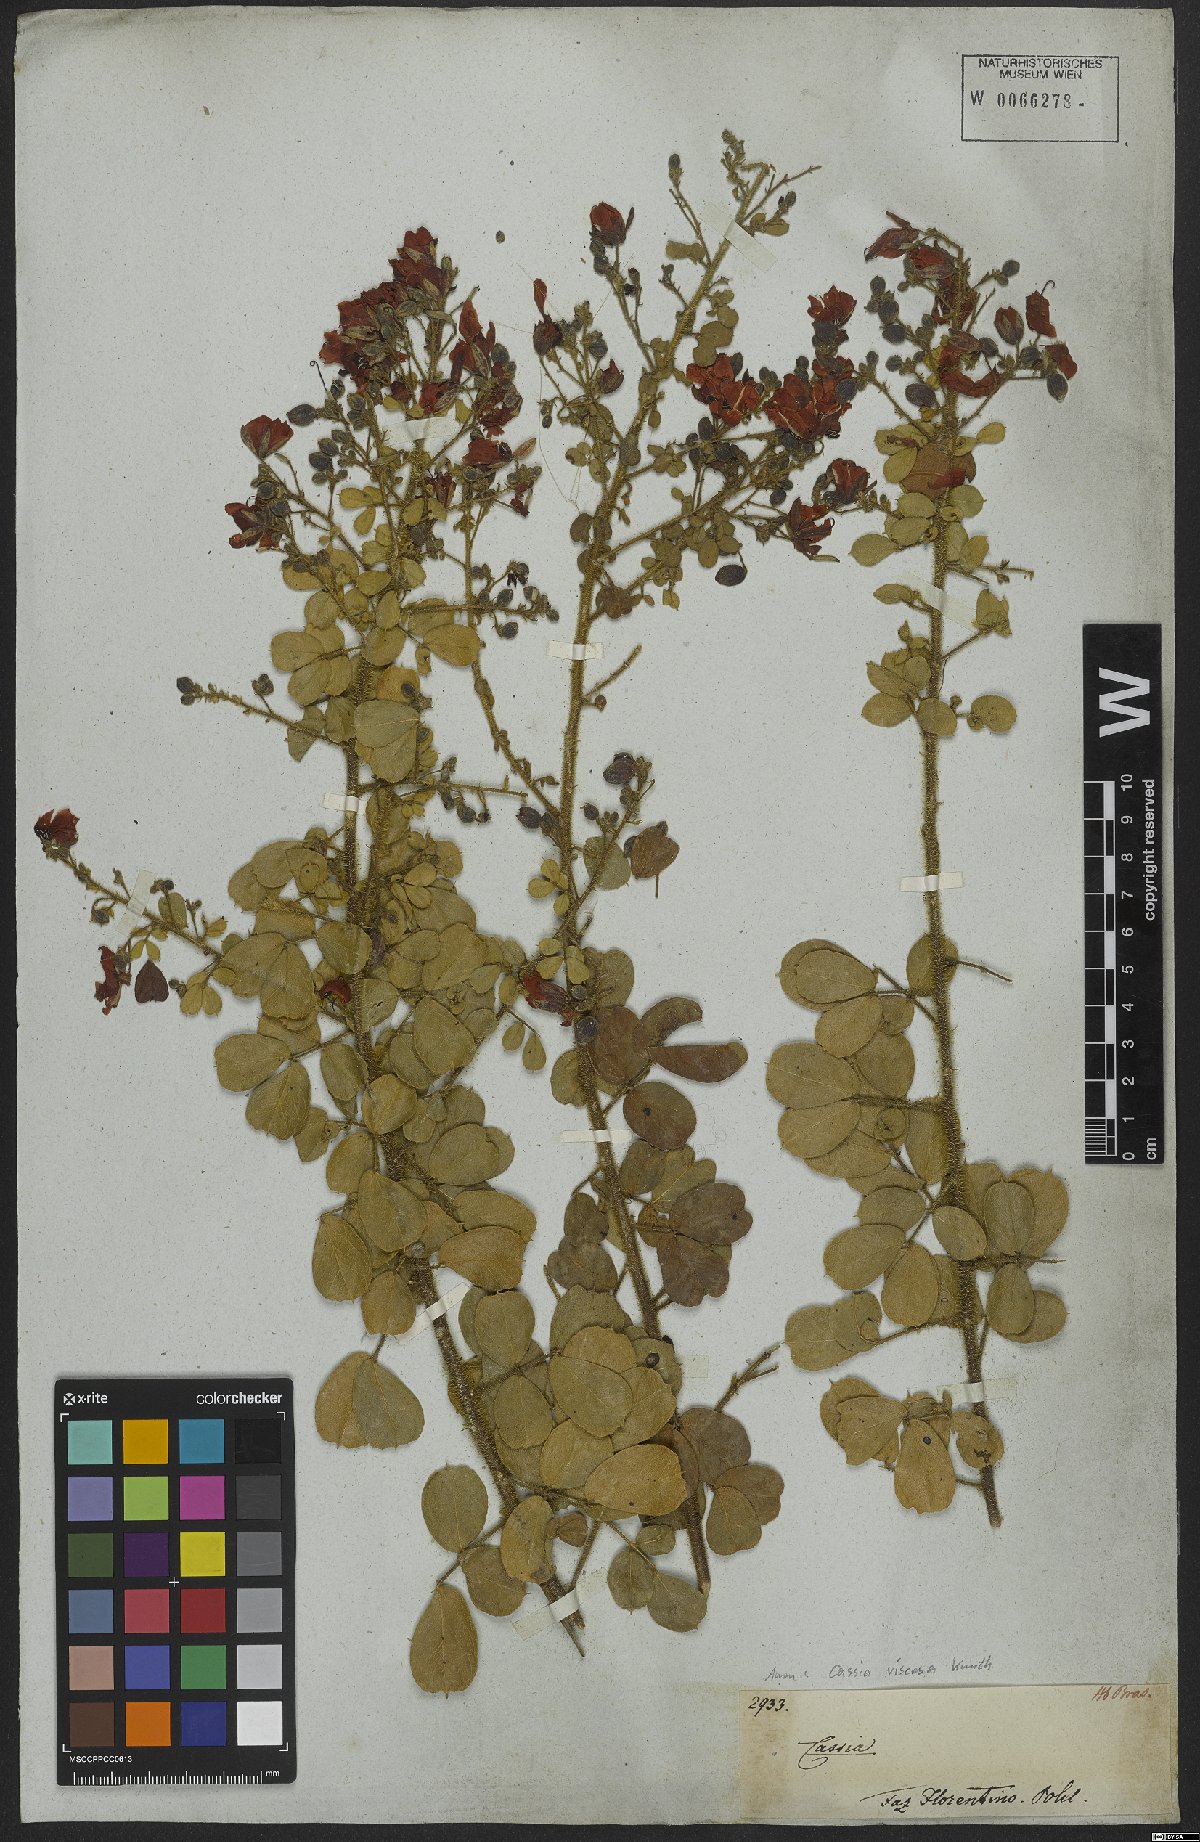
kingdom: Plantae
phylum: Tracheophyta
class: Magnoliopsida
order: Fabales
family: Fabaceae
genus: Chamaecrista
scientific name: Chamaecrista viscosa
